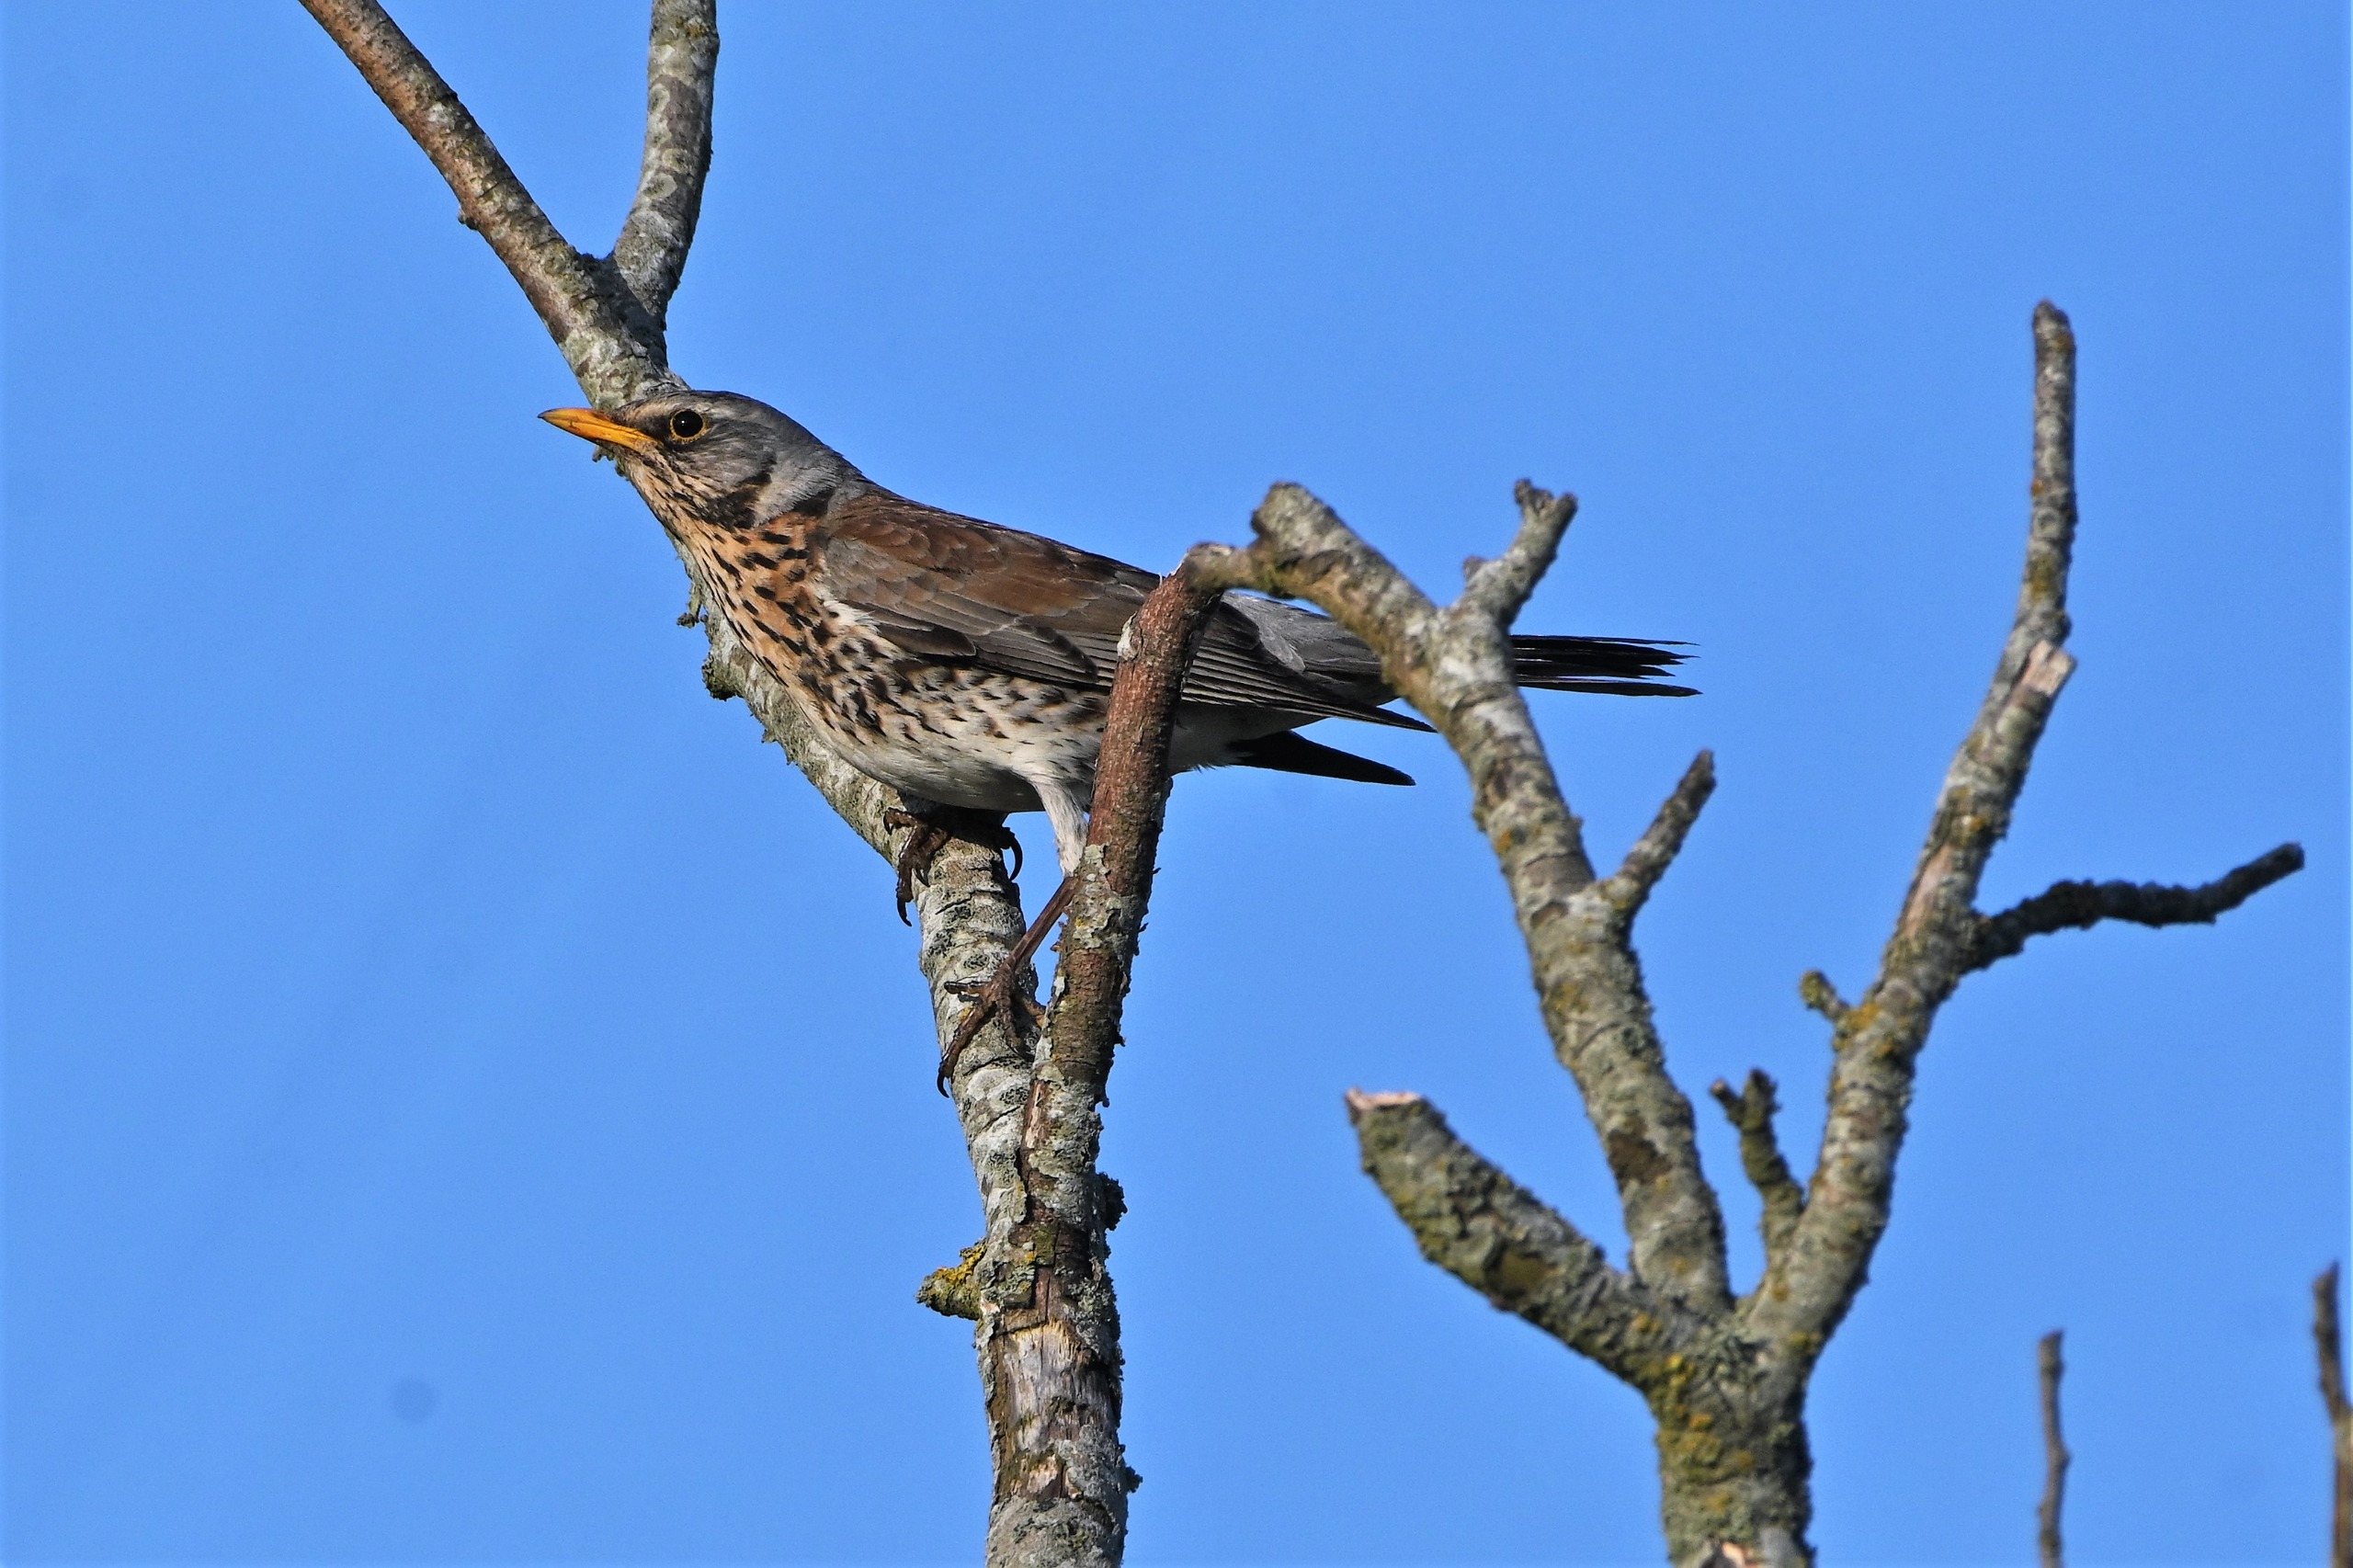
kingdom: Animalia
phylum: Chordata
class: Aves
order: Passeriformes
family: Turdidae
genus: Turdus
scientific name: Turdus pilaris
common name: Sjagger
